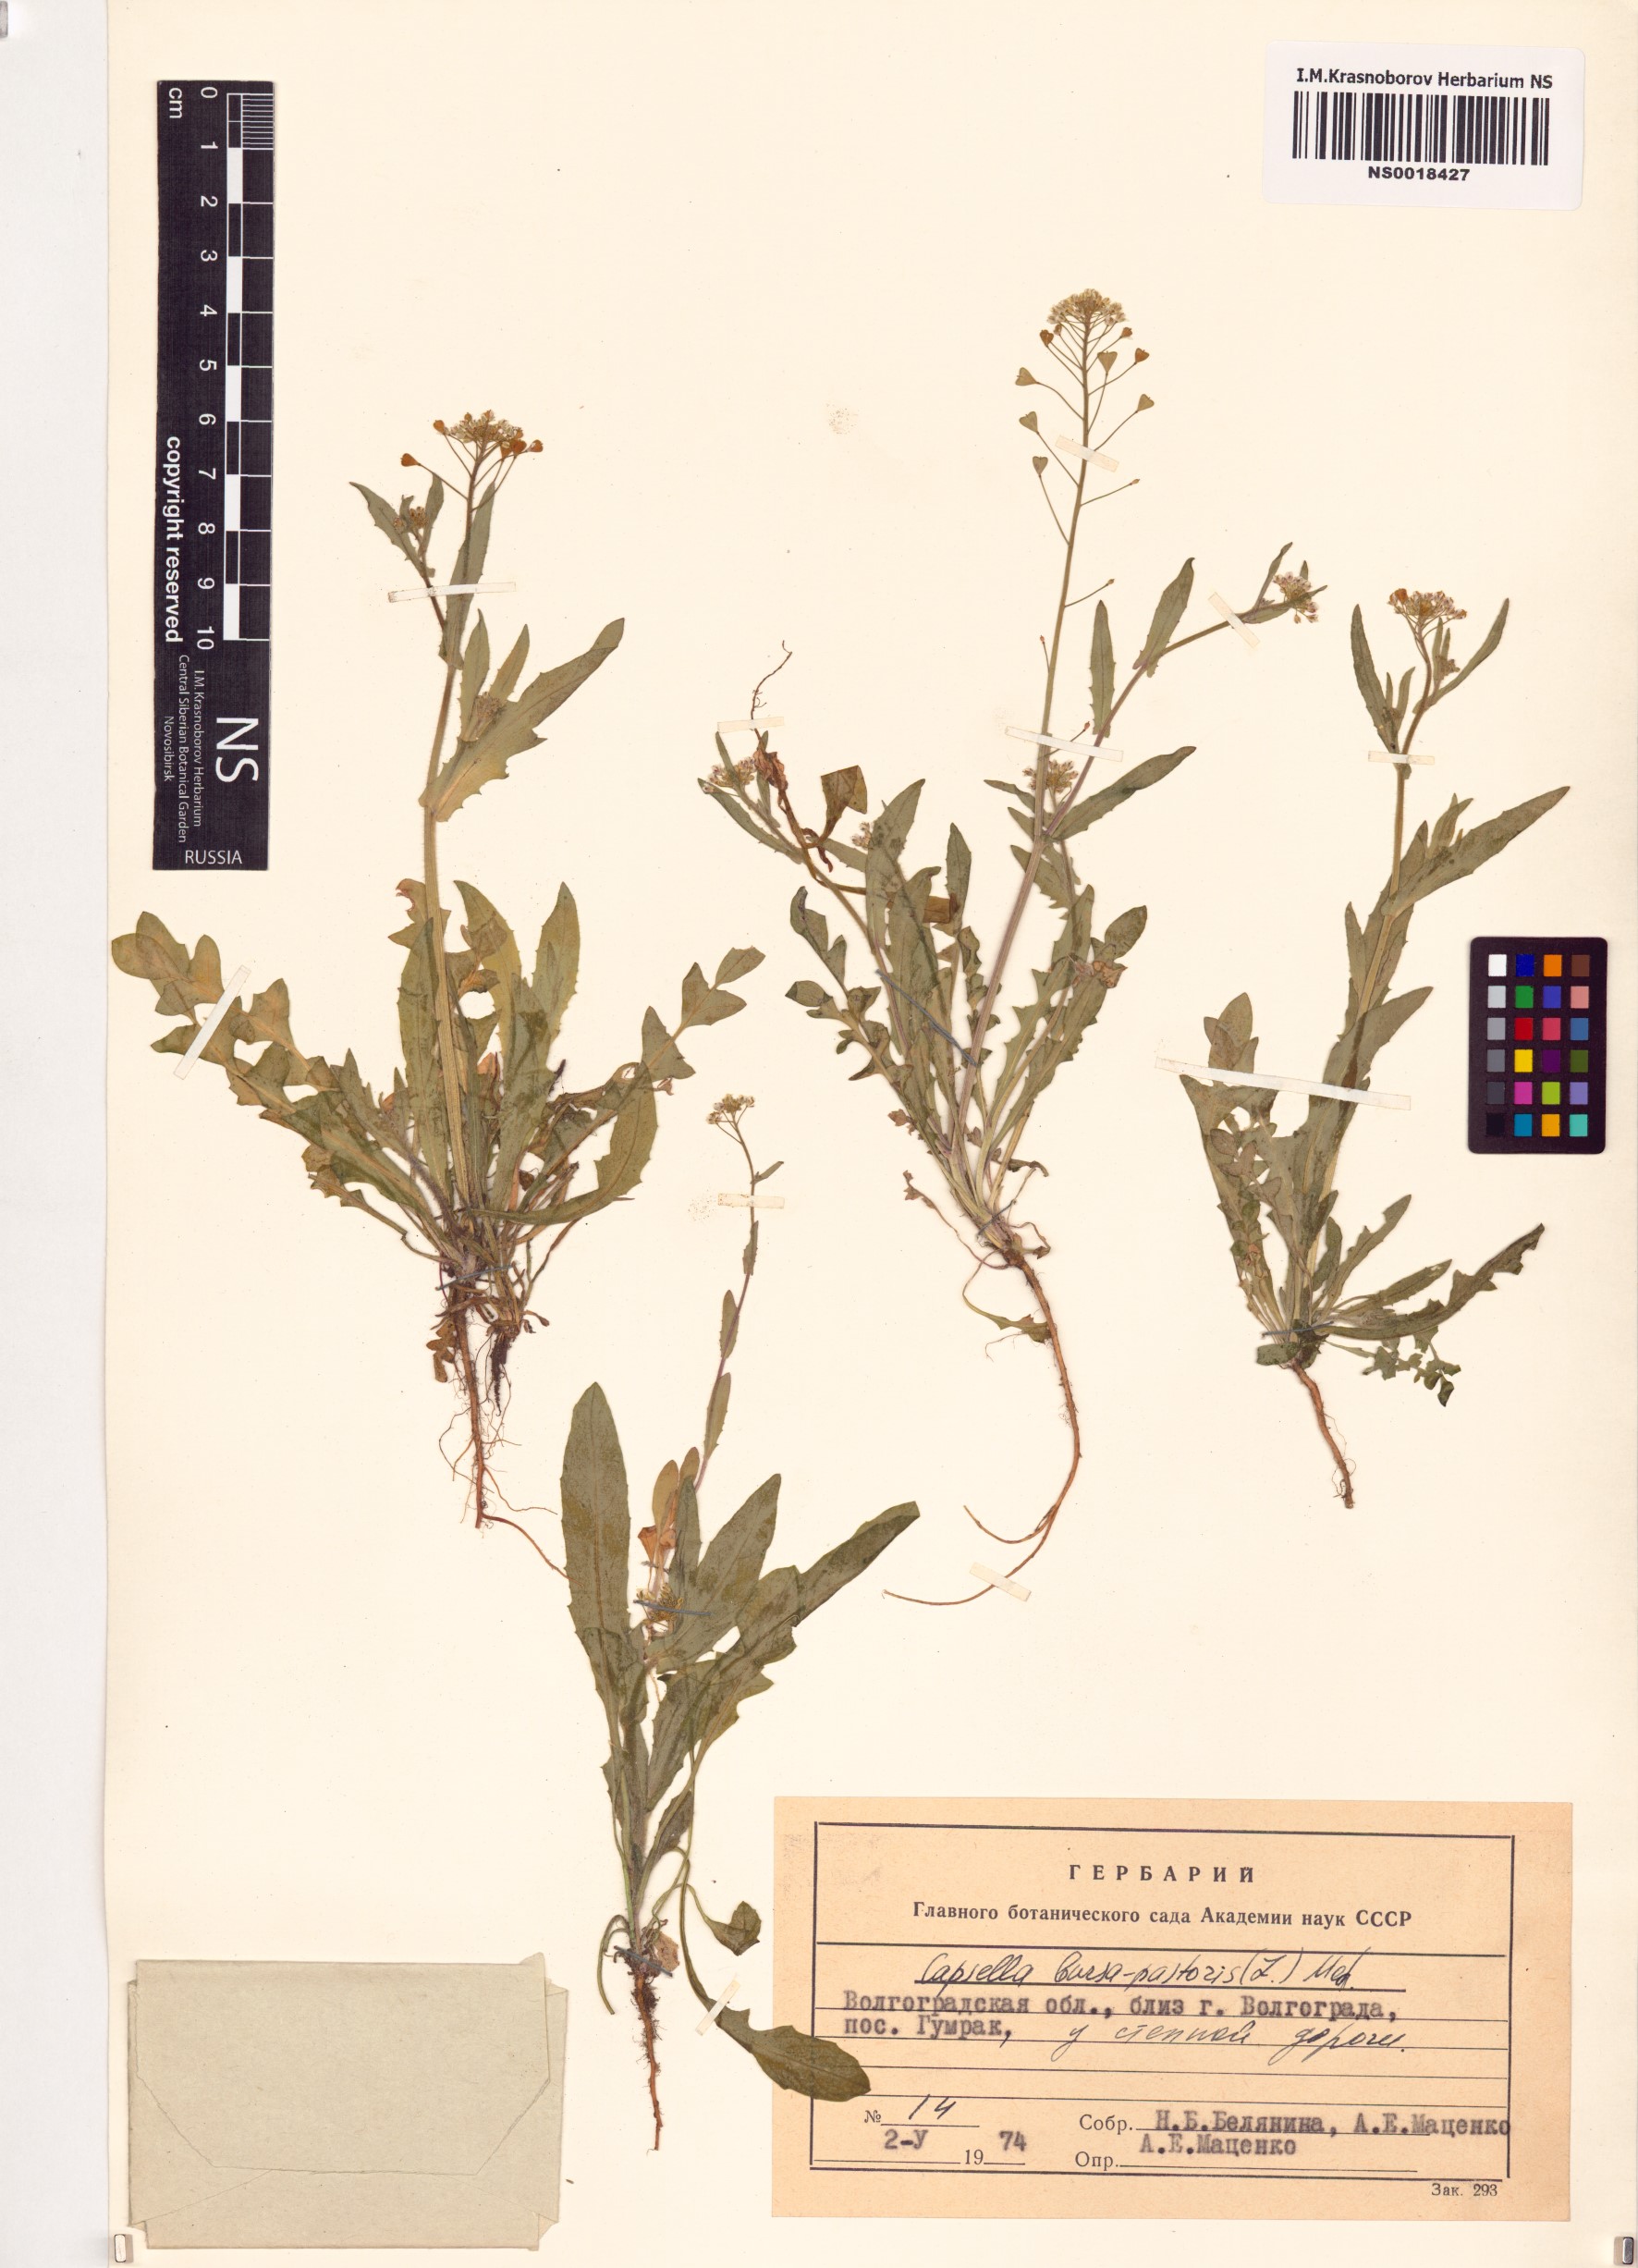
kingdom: Plantae
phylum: Tracheophyta
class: Magnoliopsida
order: Brassicales
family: Brassicaceae
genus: Capsella
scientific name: Capsella bursa-pastoris
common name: Shepherd's purse
